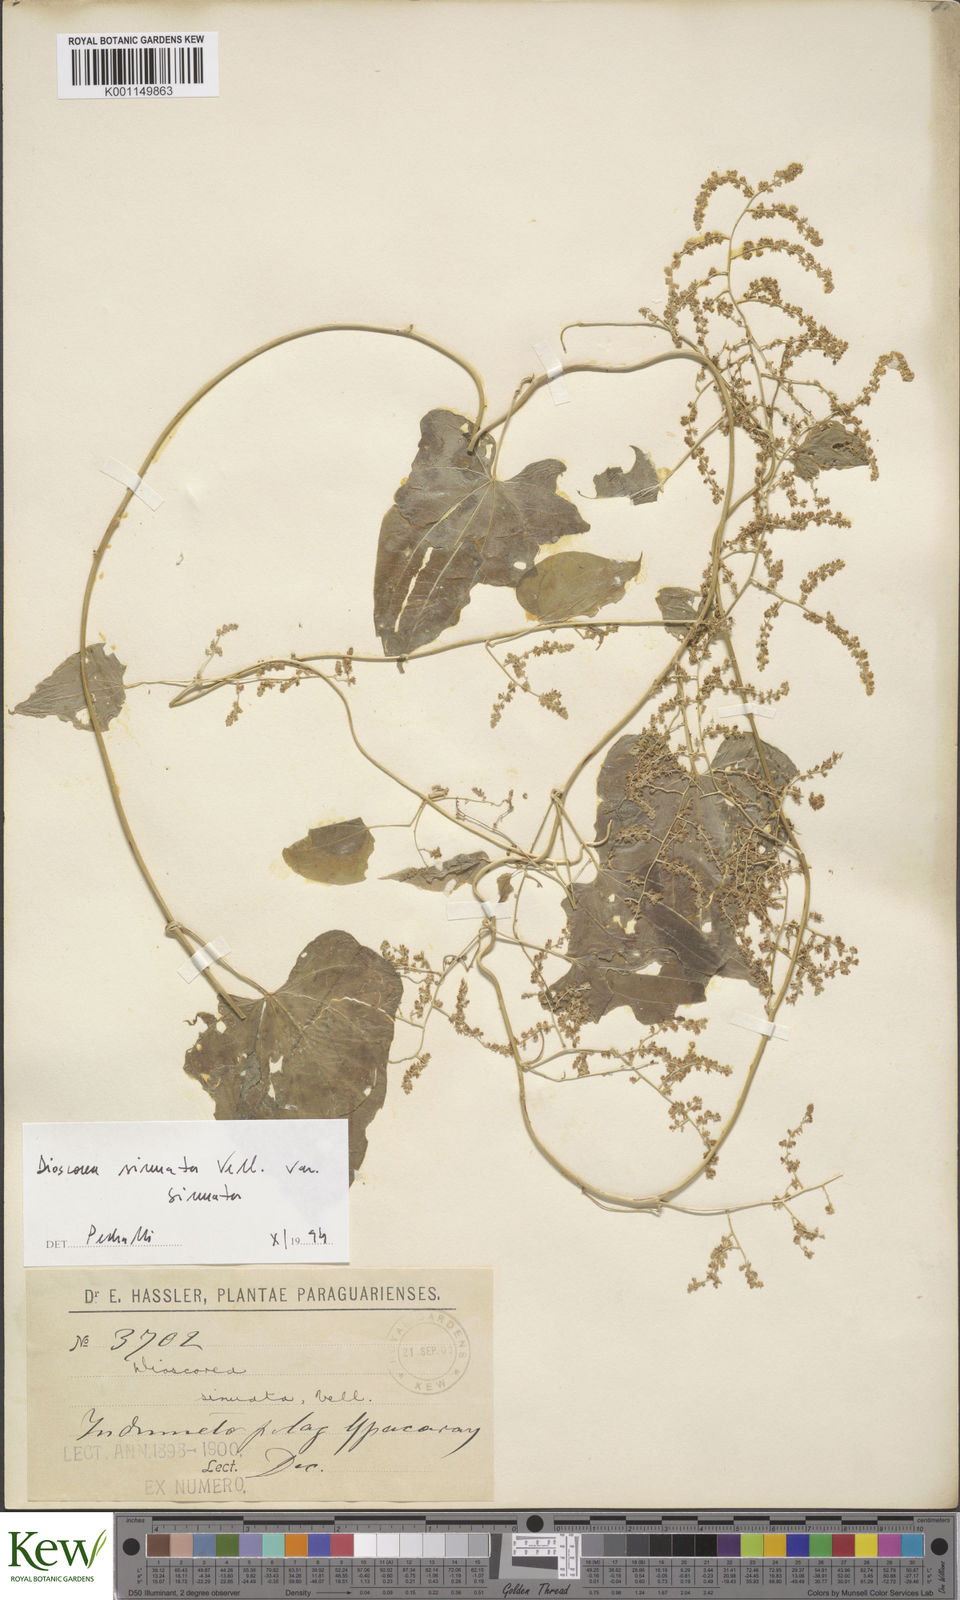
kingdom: Plantae
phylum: Tracheophyta
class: Liliopsida
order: Dioscoreales
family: Dioscoreaceae
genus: Dioscorea
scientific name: Dioscorea sinuata
